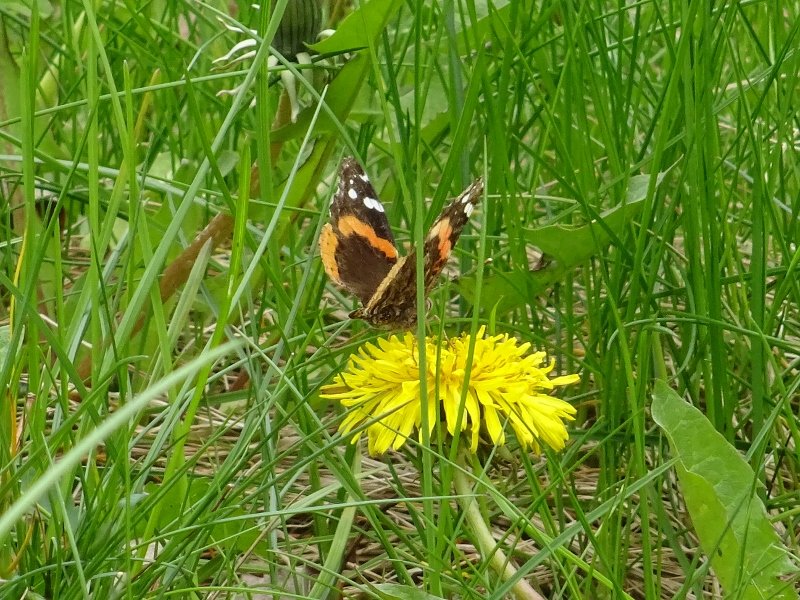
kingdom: Animalia
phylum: Arthropoda
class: Insecta
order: Lepidoptera
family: Nymphalidae
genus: Vanessa
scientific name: Vanessa atalanta
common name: Red Admiral
